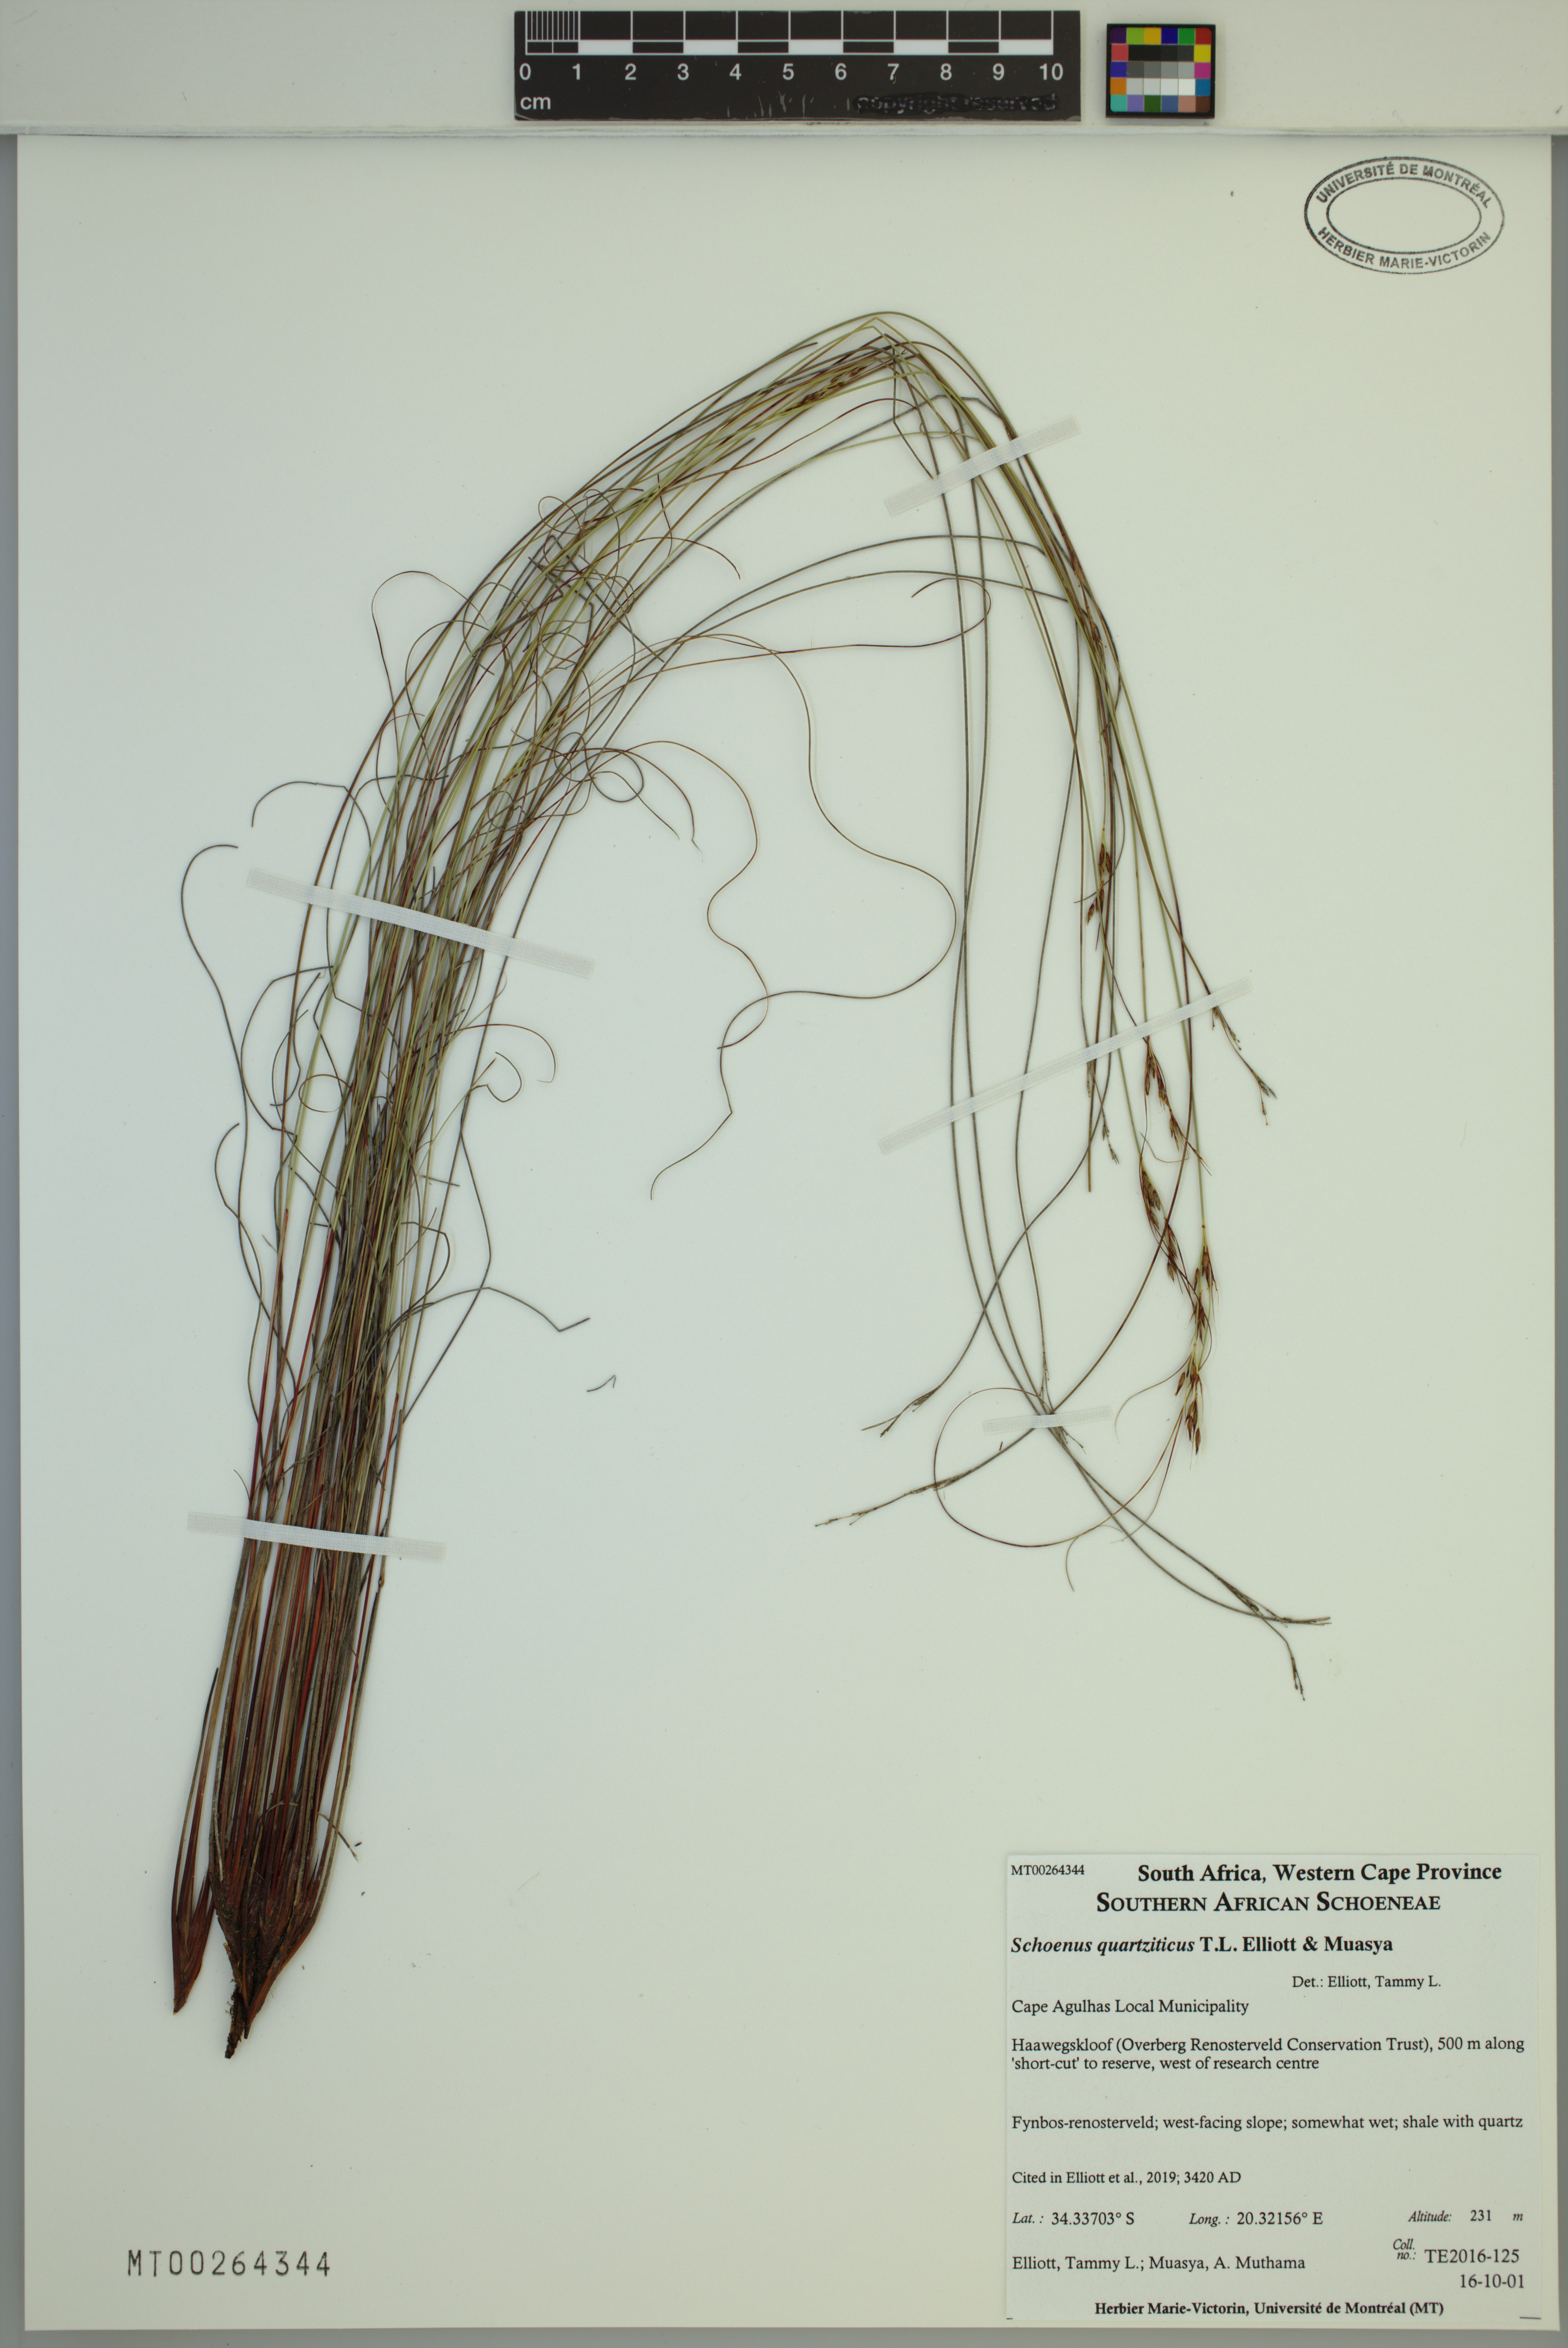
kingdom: Plantae
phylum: Tracheophyta
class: Liliopsida
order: Poales
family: Cyperaceae
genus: Schoenus
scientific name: Schoenus quartziticus
